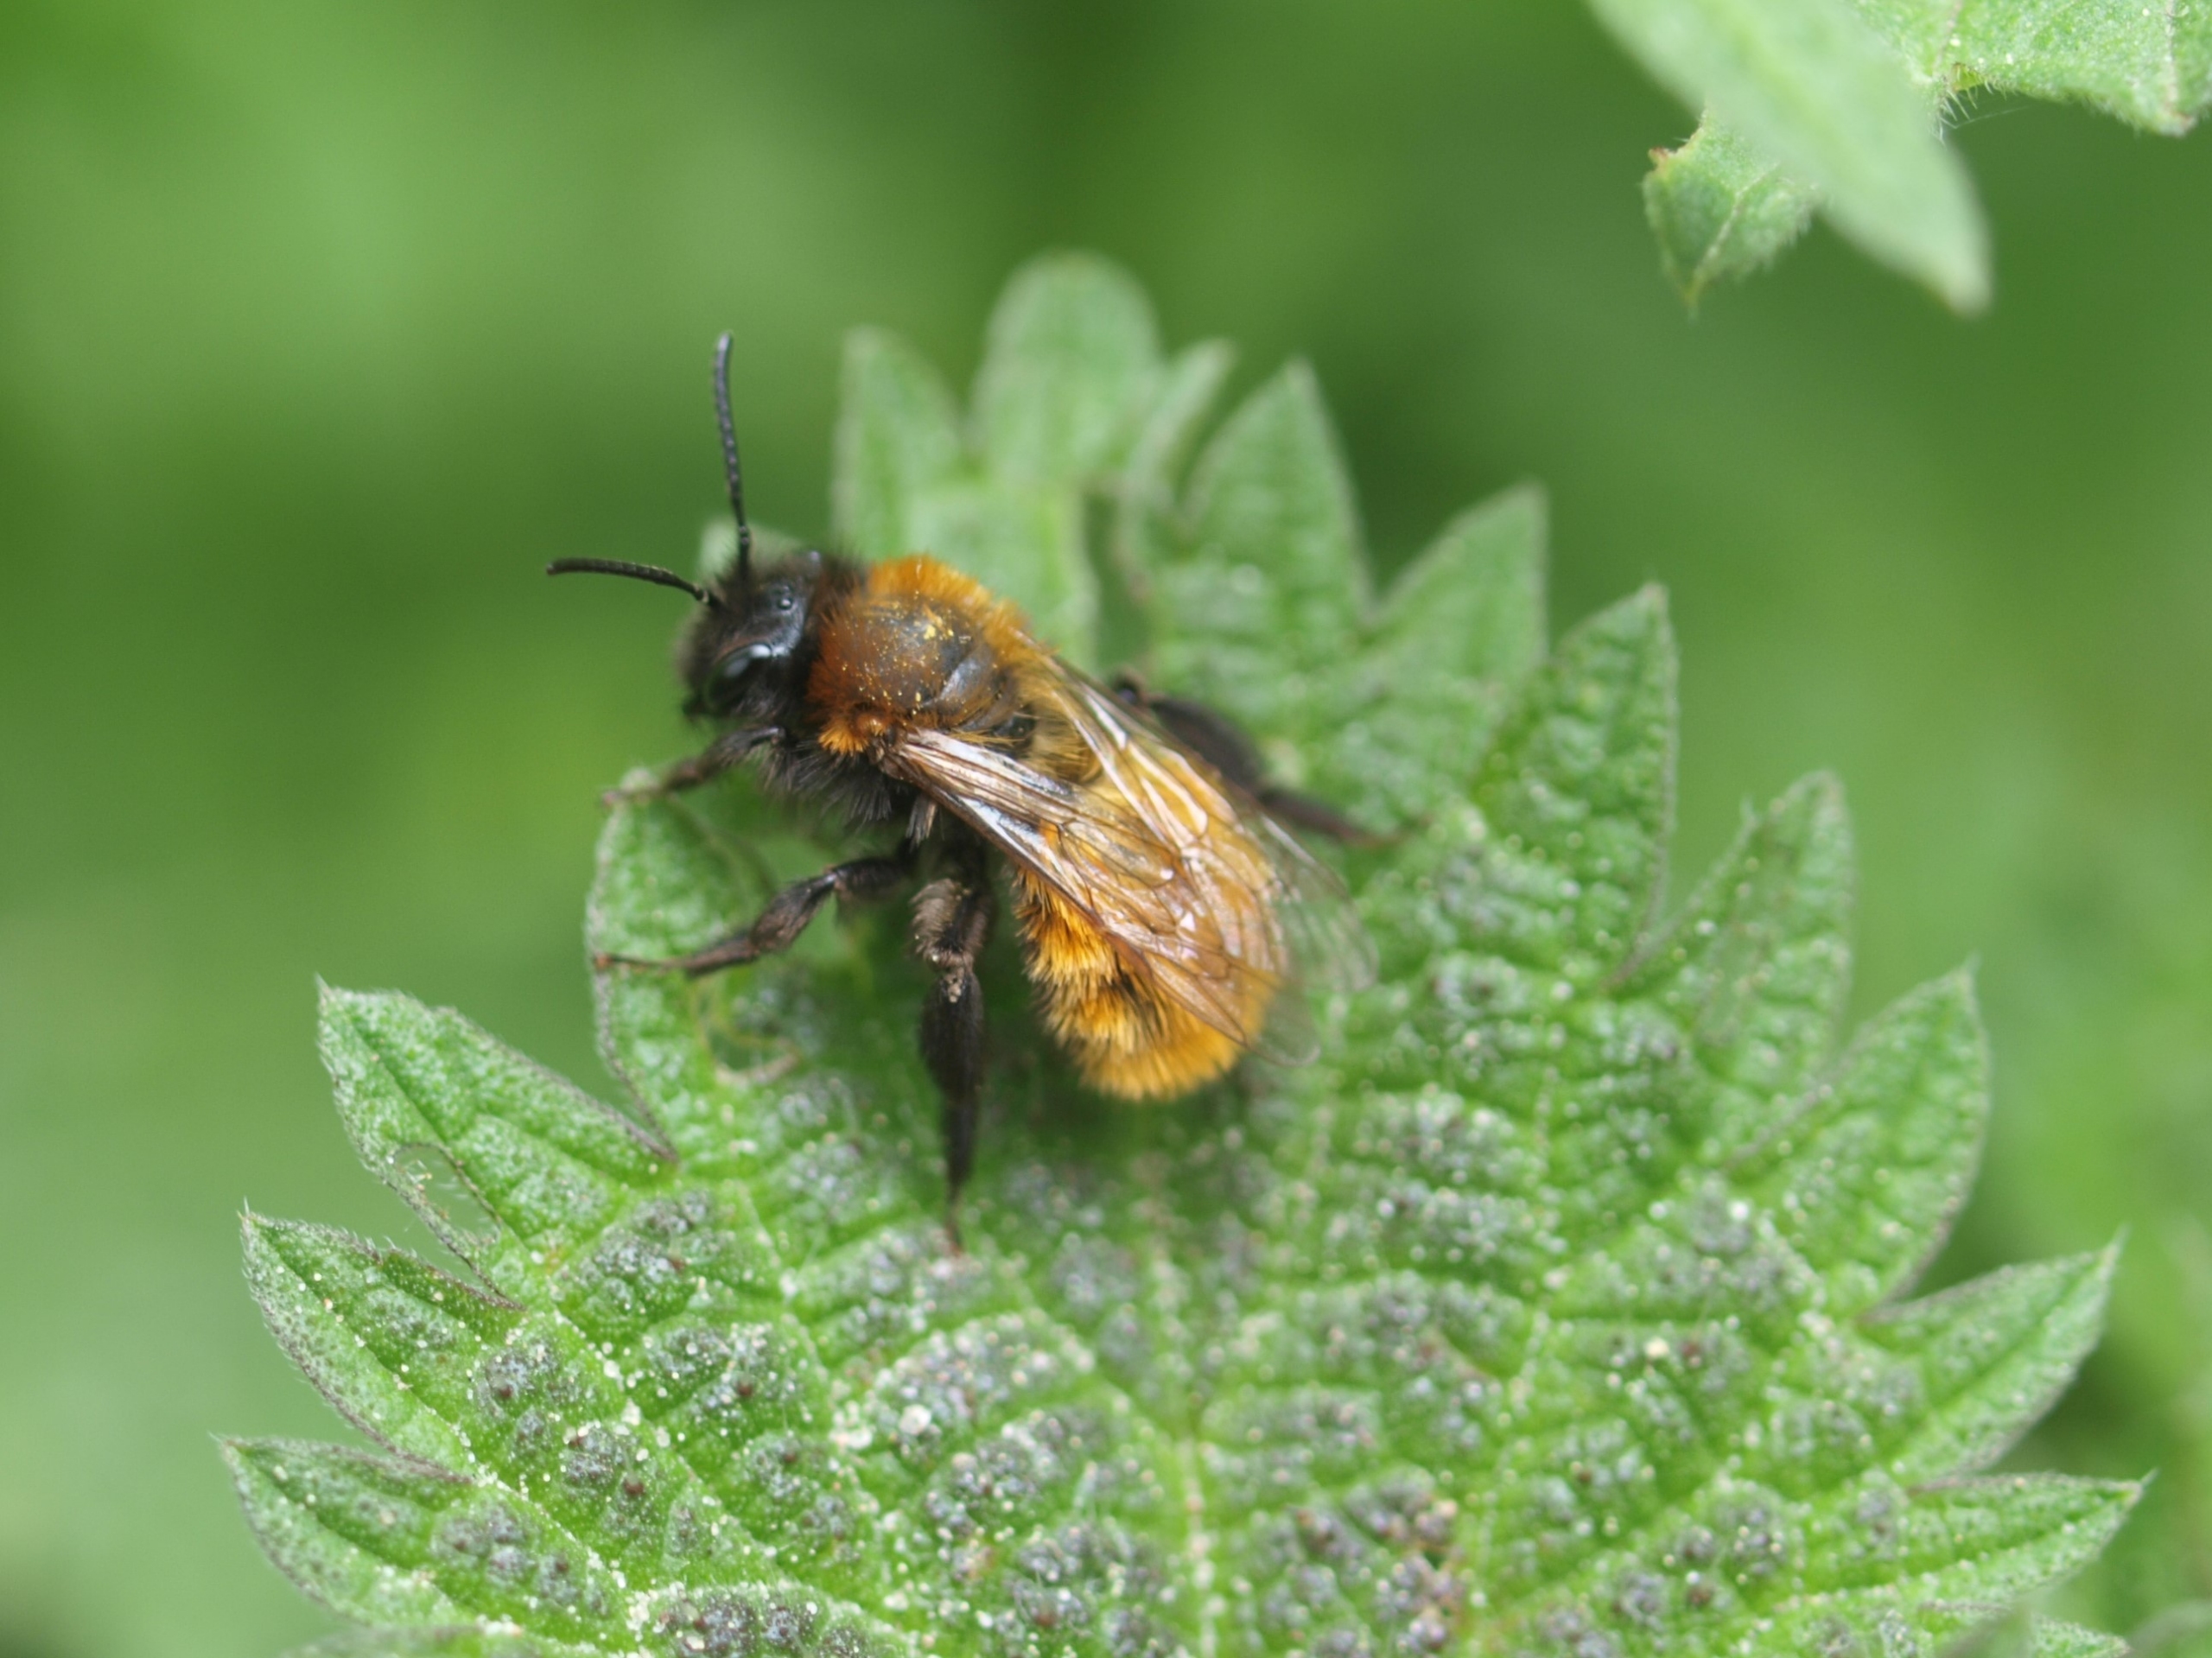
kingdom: Animalia
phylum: Arthropoda
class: Insecta
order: Hymenoptera
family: Andrenidae
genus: Andrena
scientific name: Andrena fulva
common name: Rødpelset jordbi
